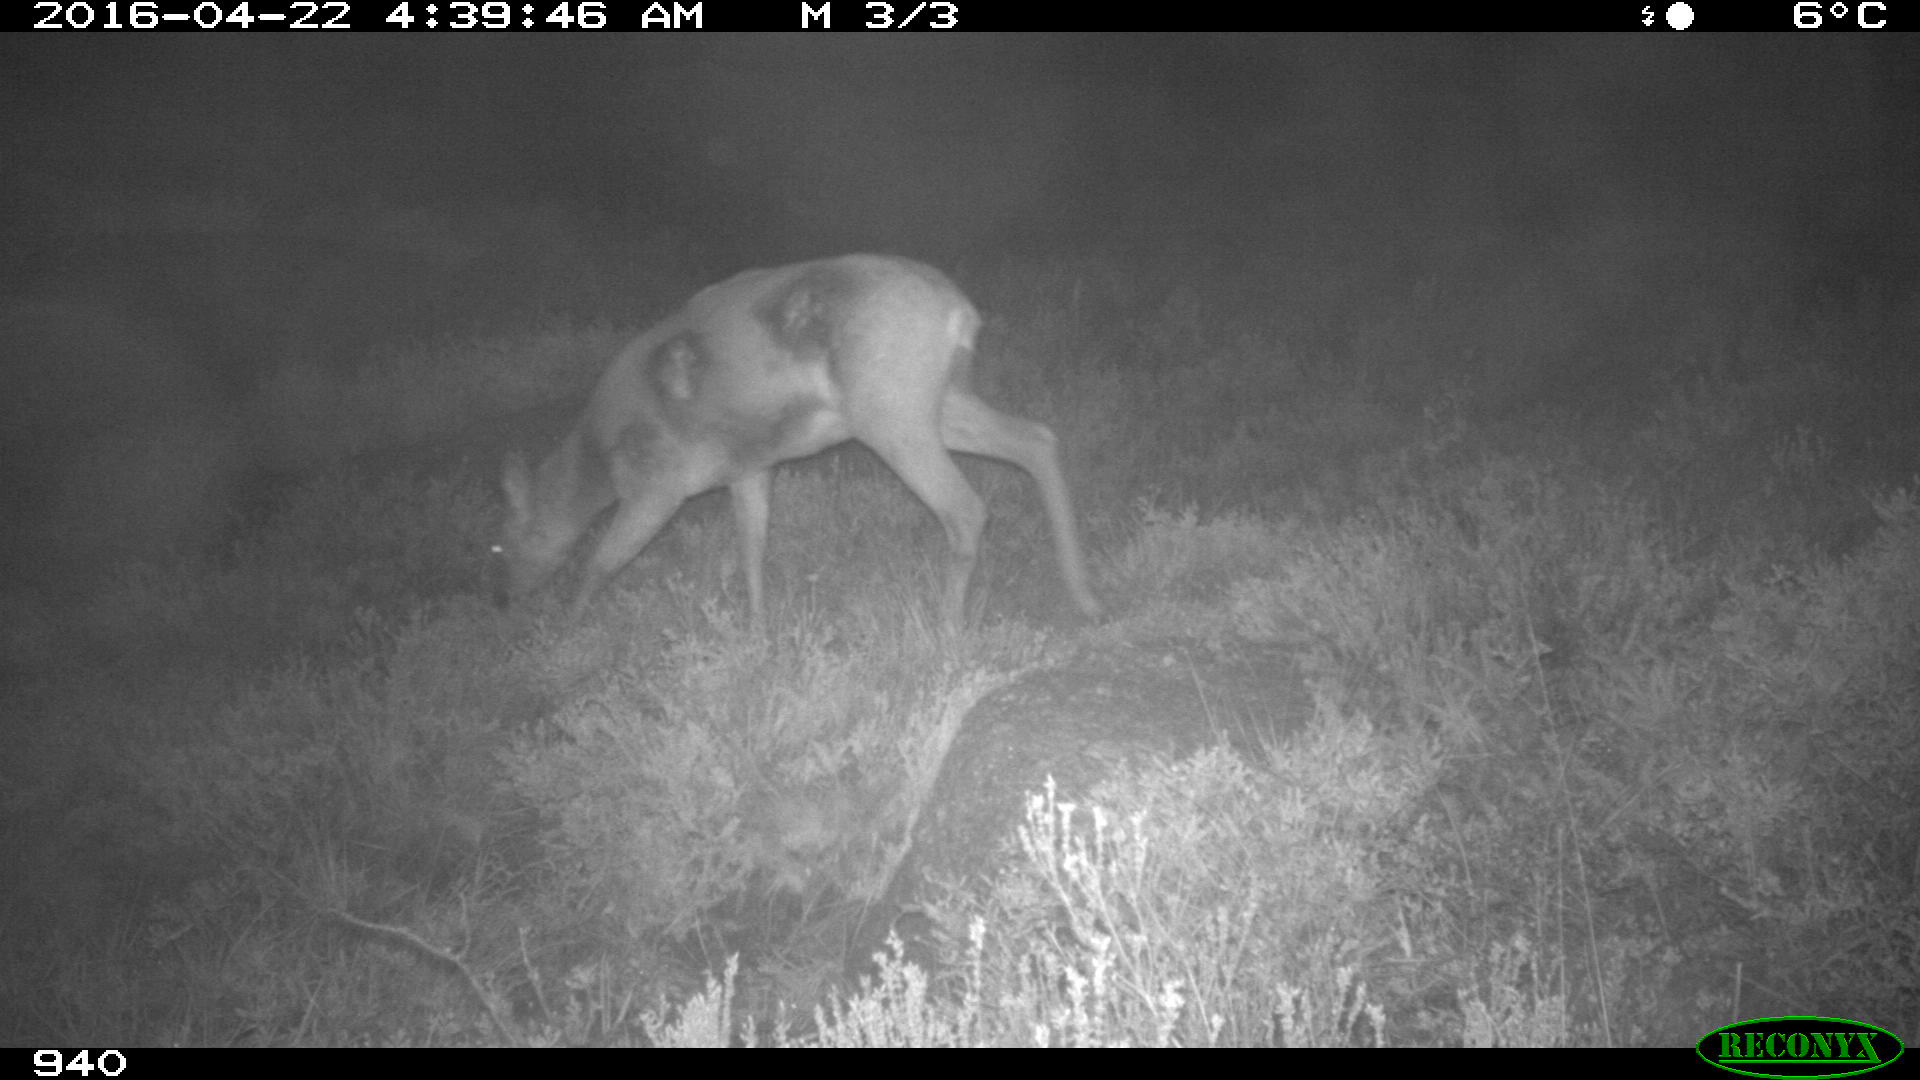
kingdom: Animalia
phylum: Chordata
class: Mammalia
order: Artiodactyla
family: Cervidae
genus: Capreolus
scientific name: Capreolus capreolus
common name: Western roe deer
